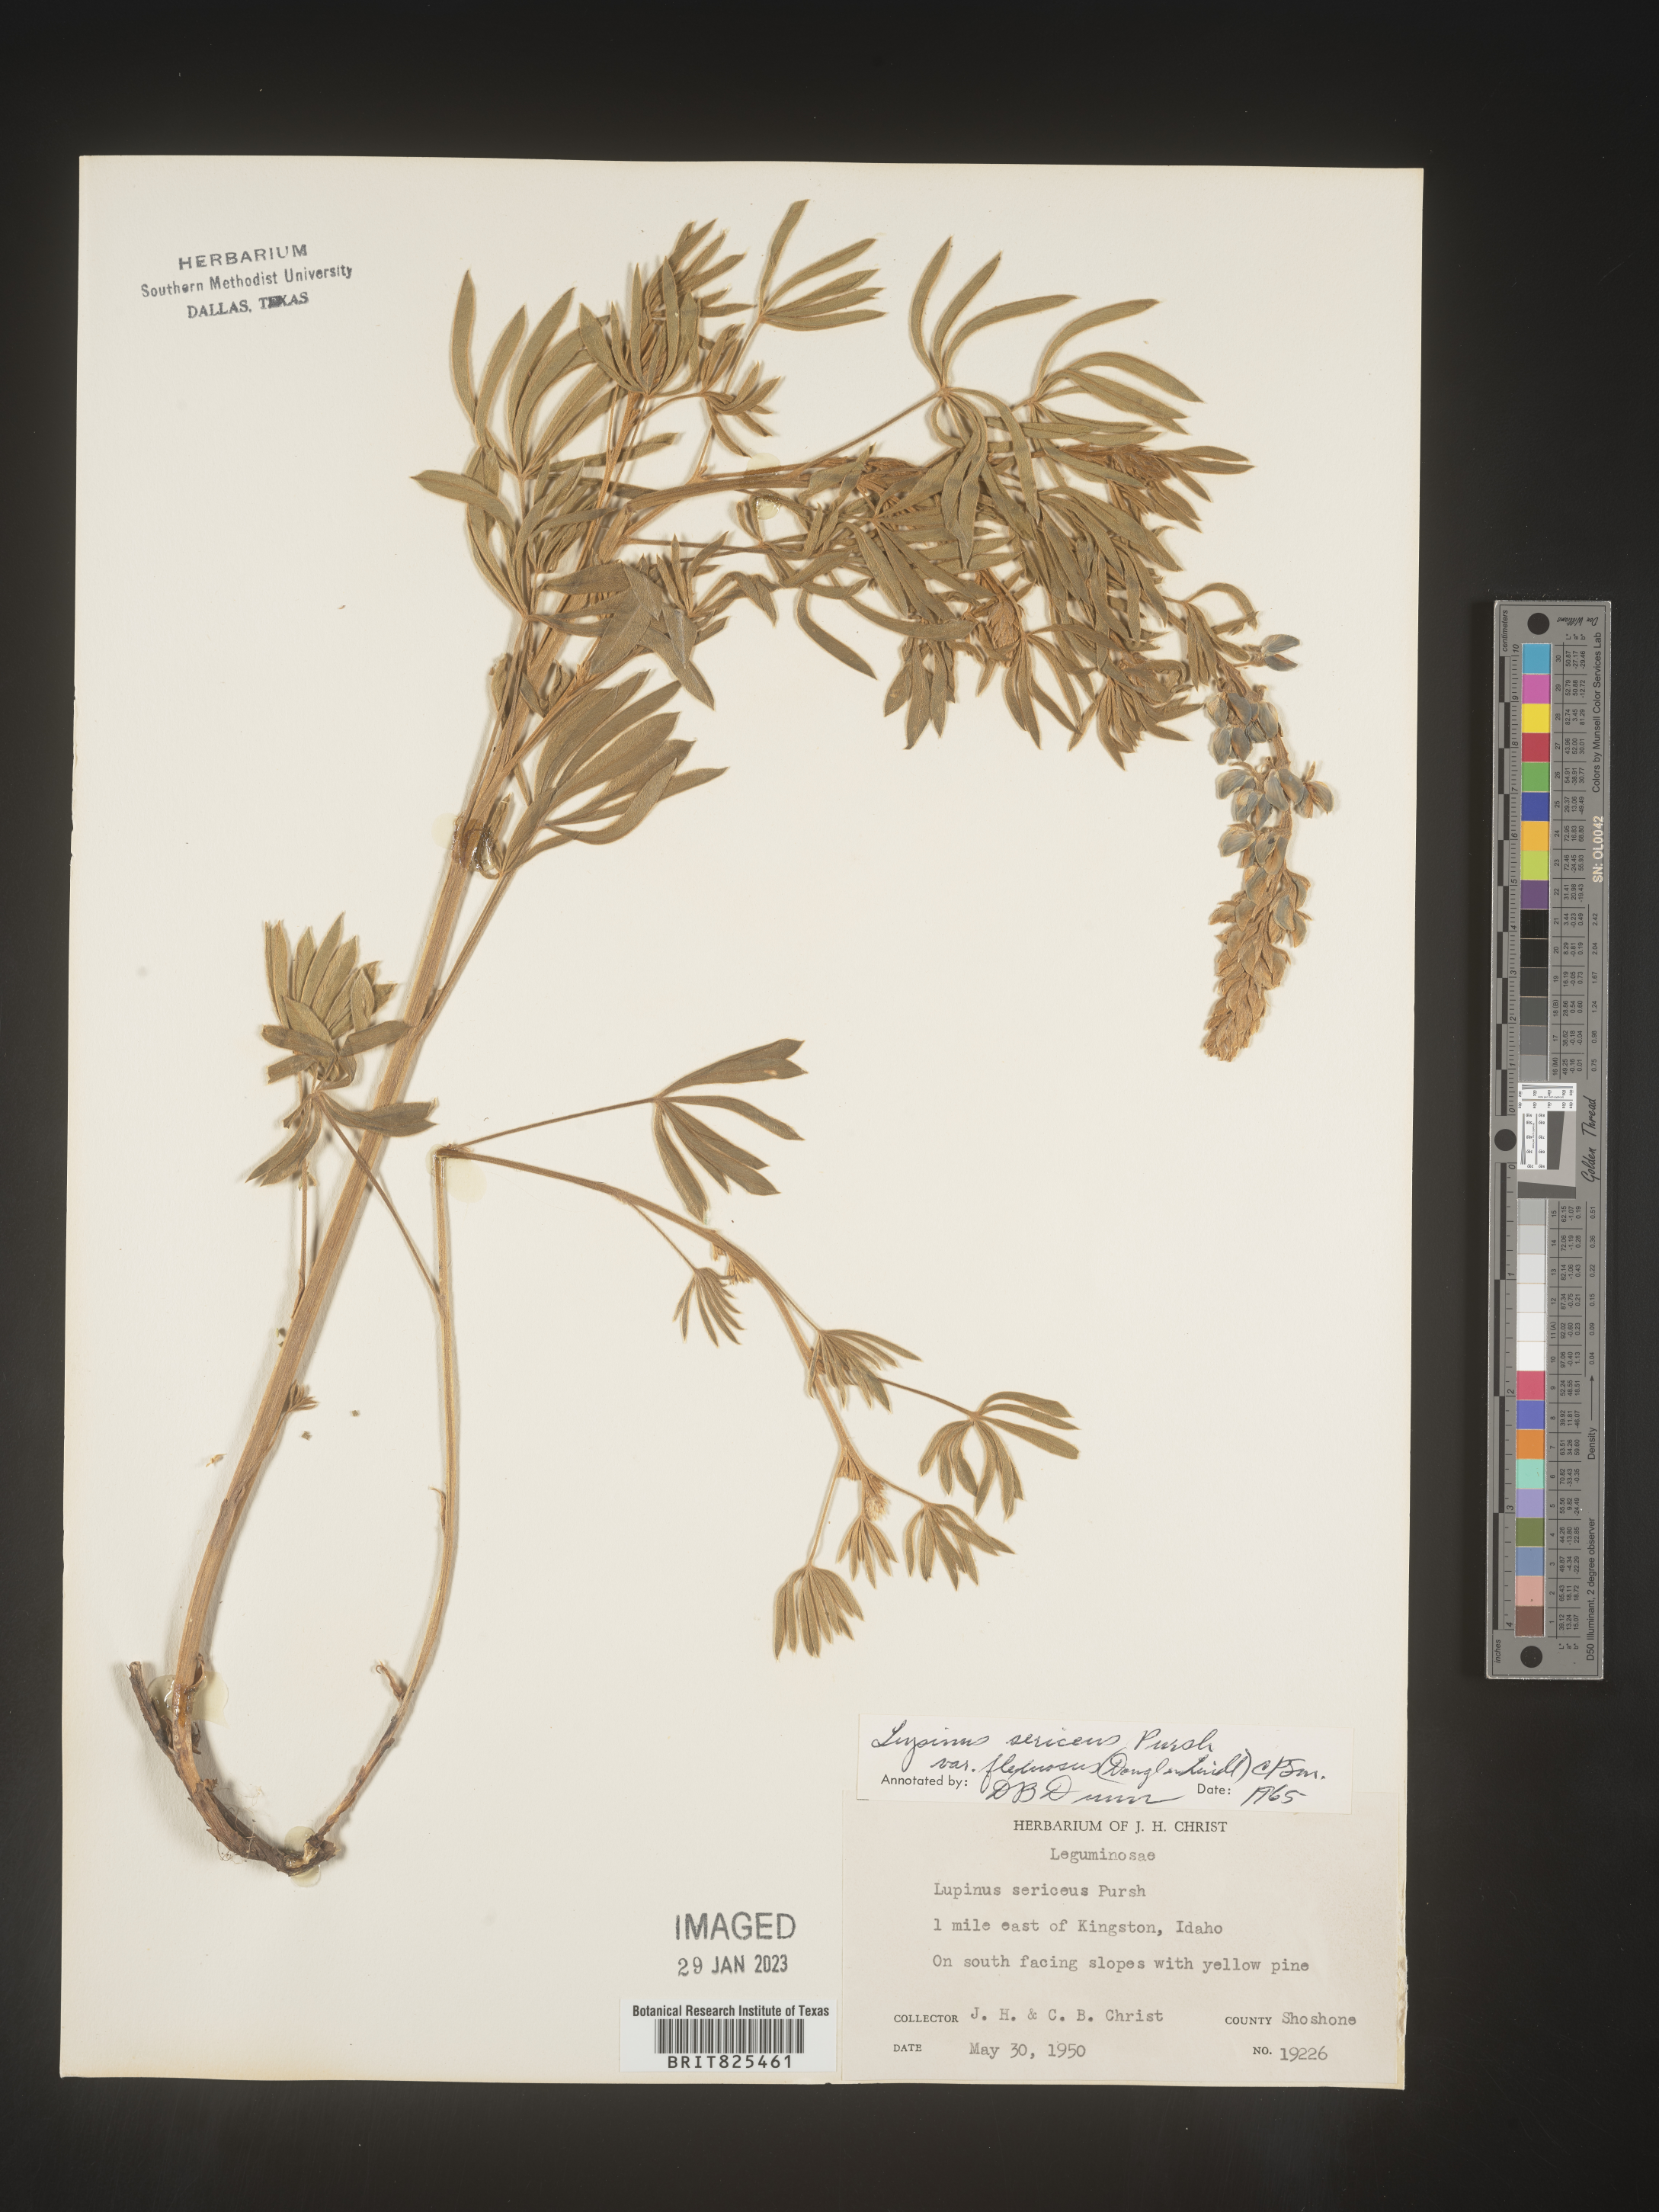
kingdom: Plantae
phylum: Tracheophyta
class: Magnoliopsida
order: Fabales
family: Fabaceae
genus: Lupinus
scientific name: Lupinus sericeus
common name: Silky lupine
